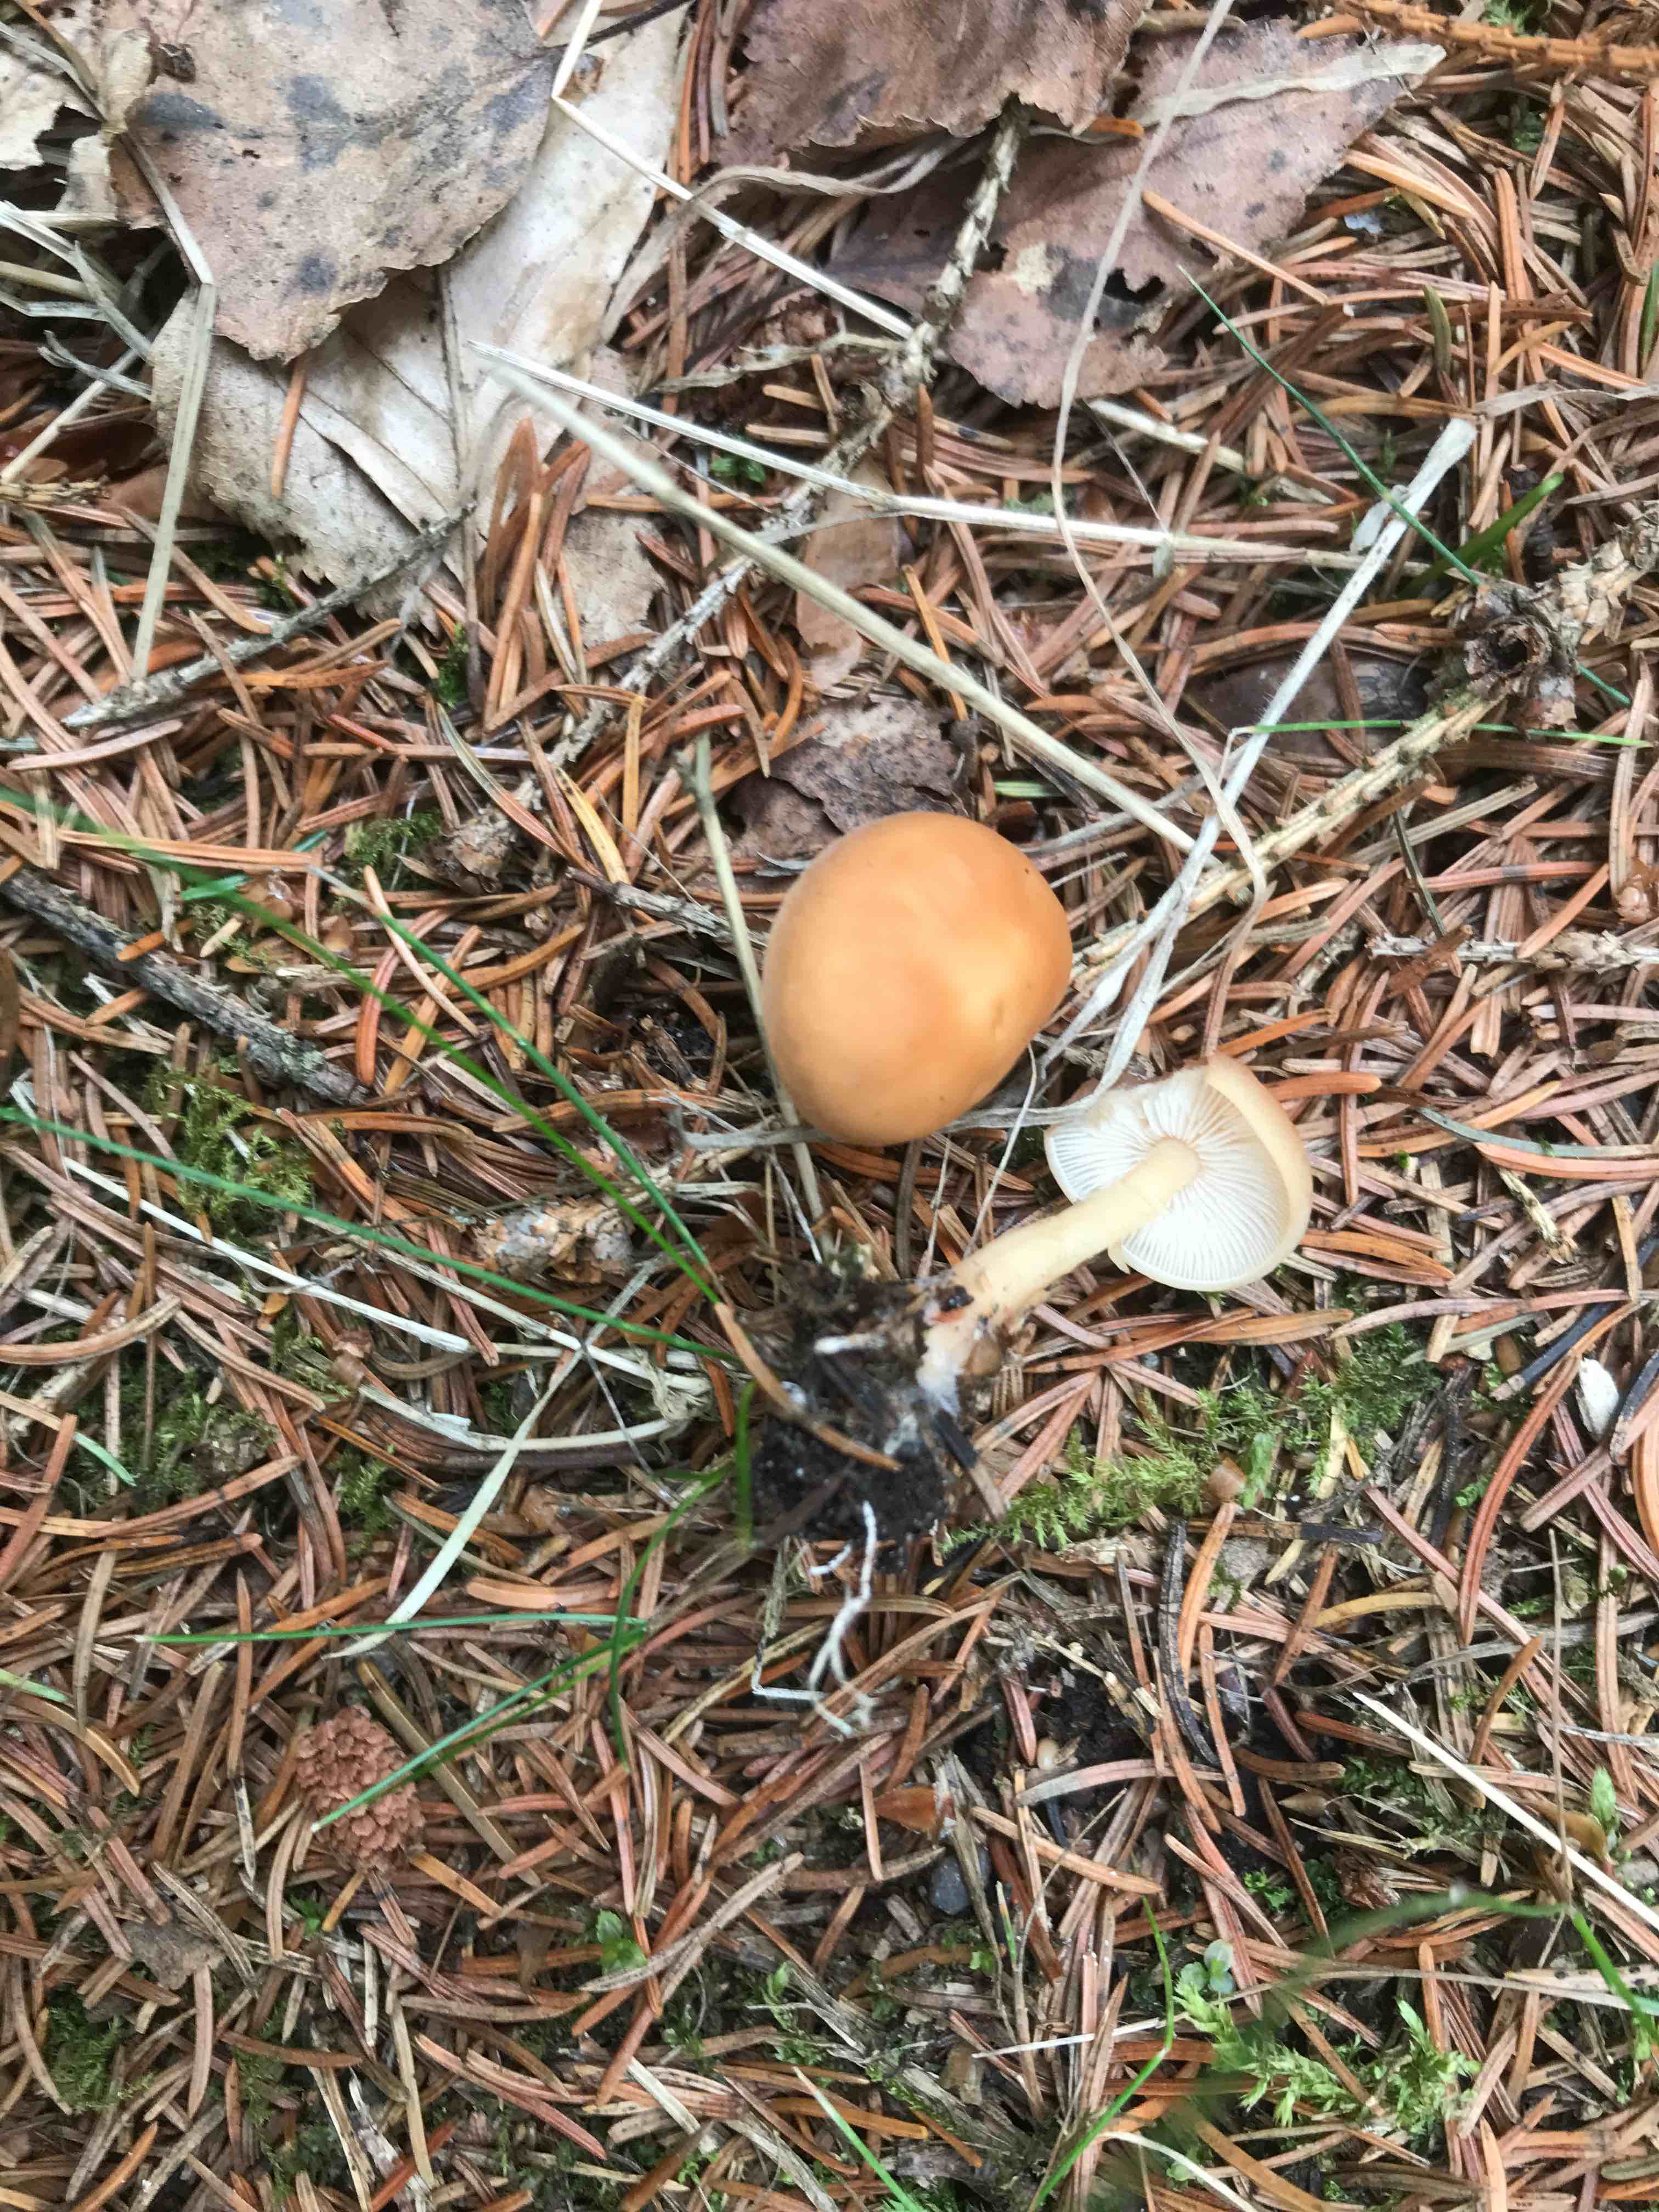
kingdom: Fungi
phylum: Basidiomycota
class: Agaricomycetes
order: Agaricales
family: Omphalotaceae
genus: Gymnopus
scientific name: Gymnopus aquosus
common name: bleg fladhat
